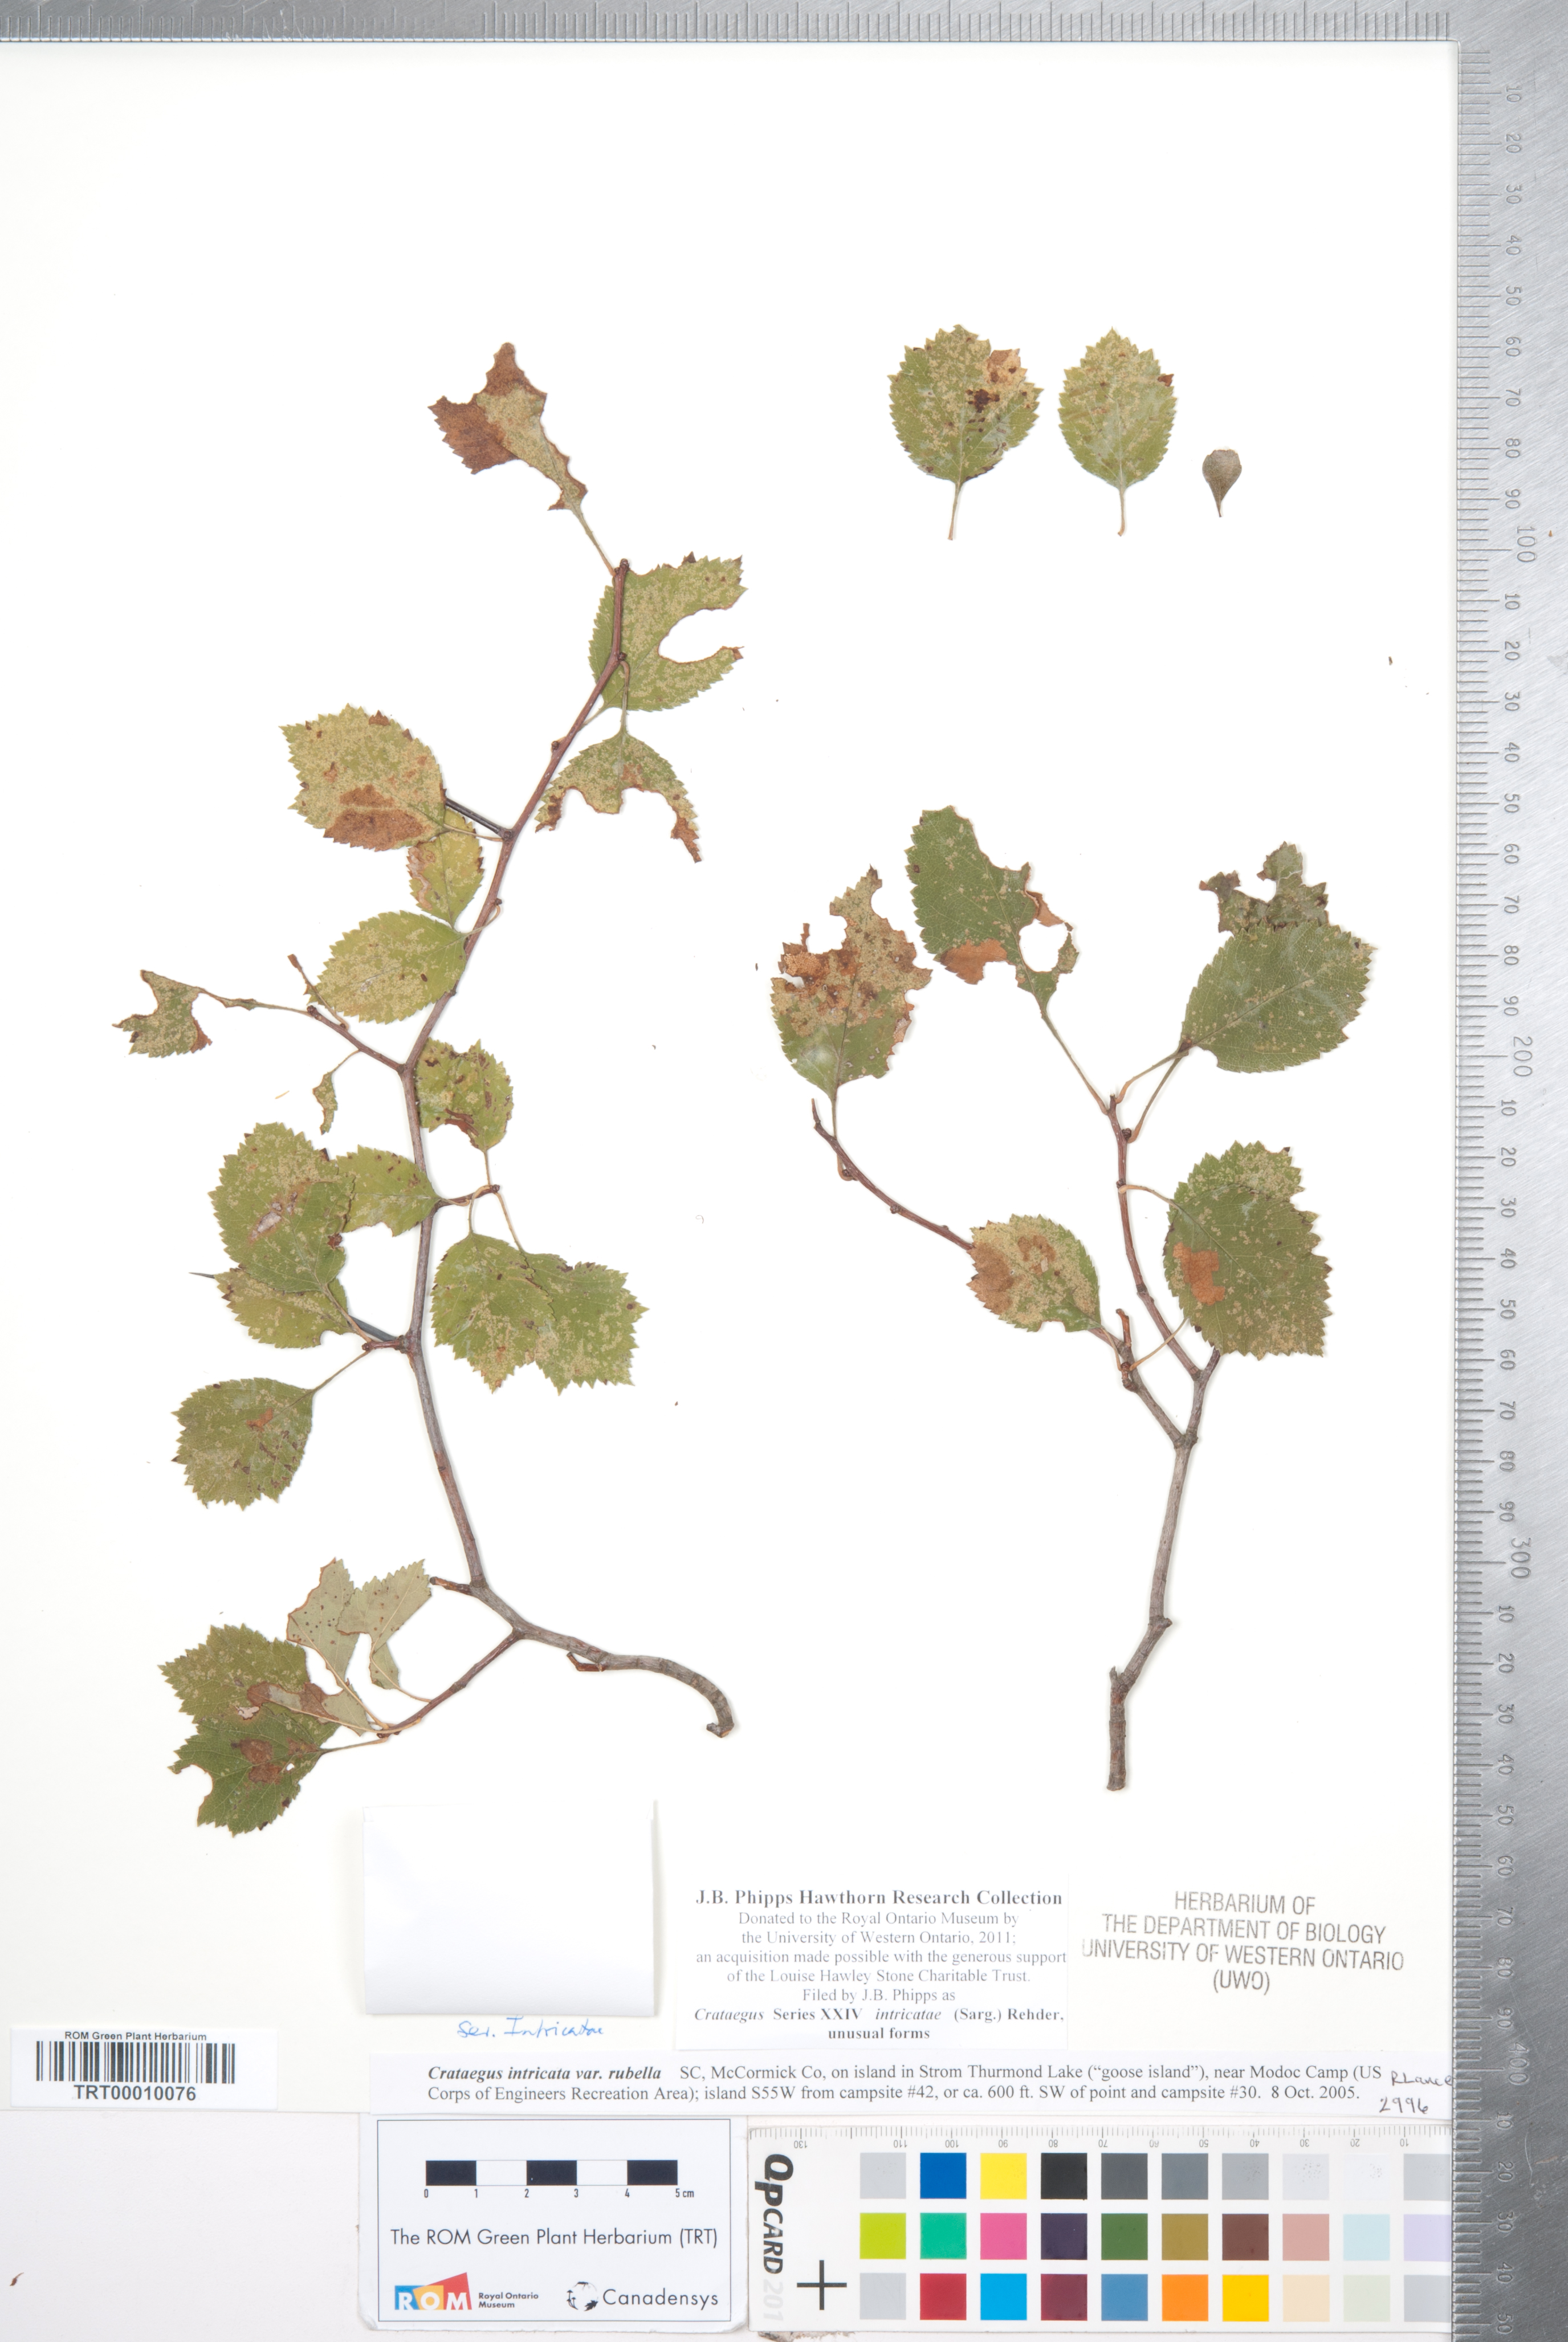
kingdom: Plantae
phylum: Tracheophyta
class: Magnoliopsida
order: Rosales
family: Rosaceae
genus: Crataegus
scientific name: Crataegus intricata
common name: Biltmore hawthorn
